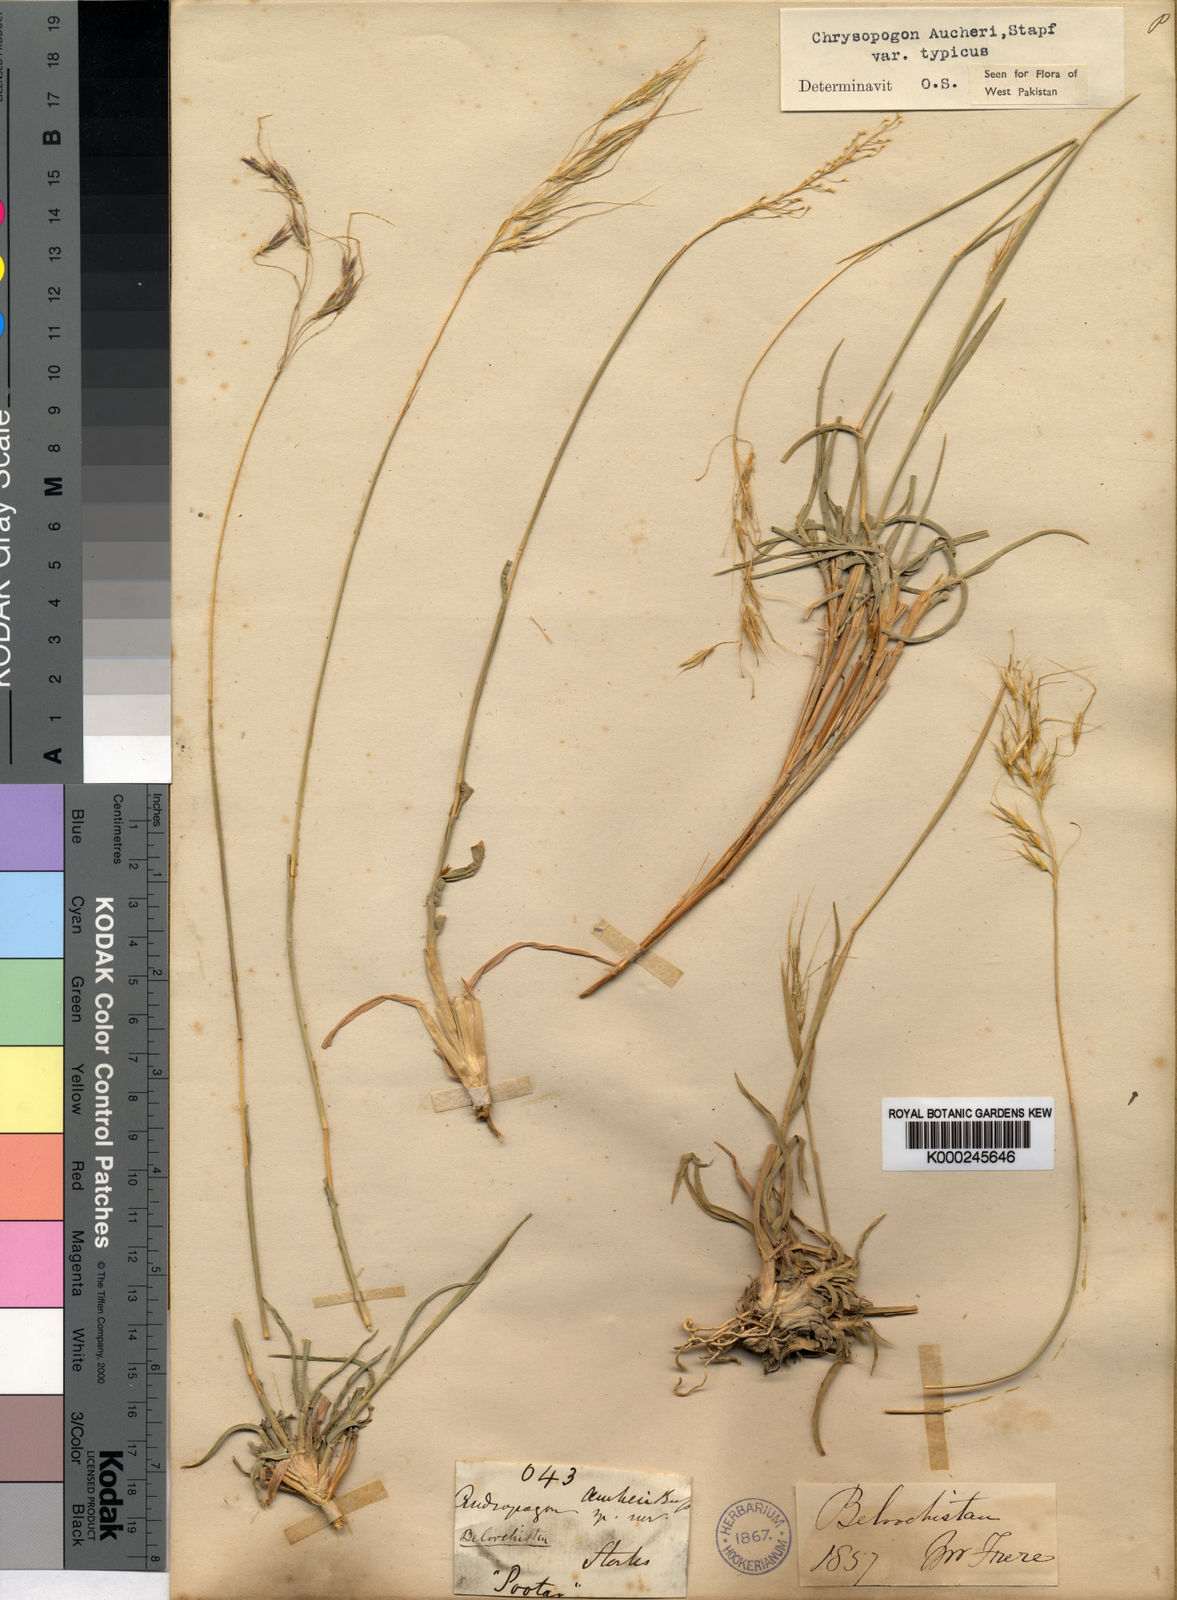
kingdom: Plantae
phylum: Tracheophyta
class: Liliopsida
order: Poales
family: Poaceae
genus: Chrysopogon
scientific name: Chrysopogon aucheri
